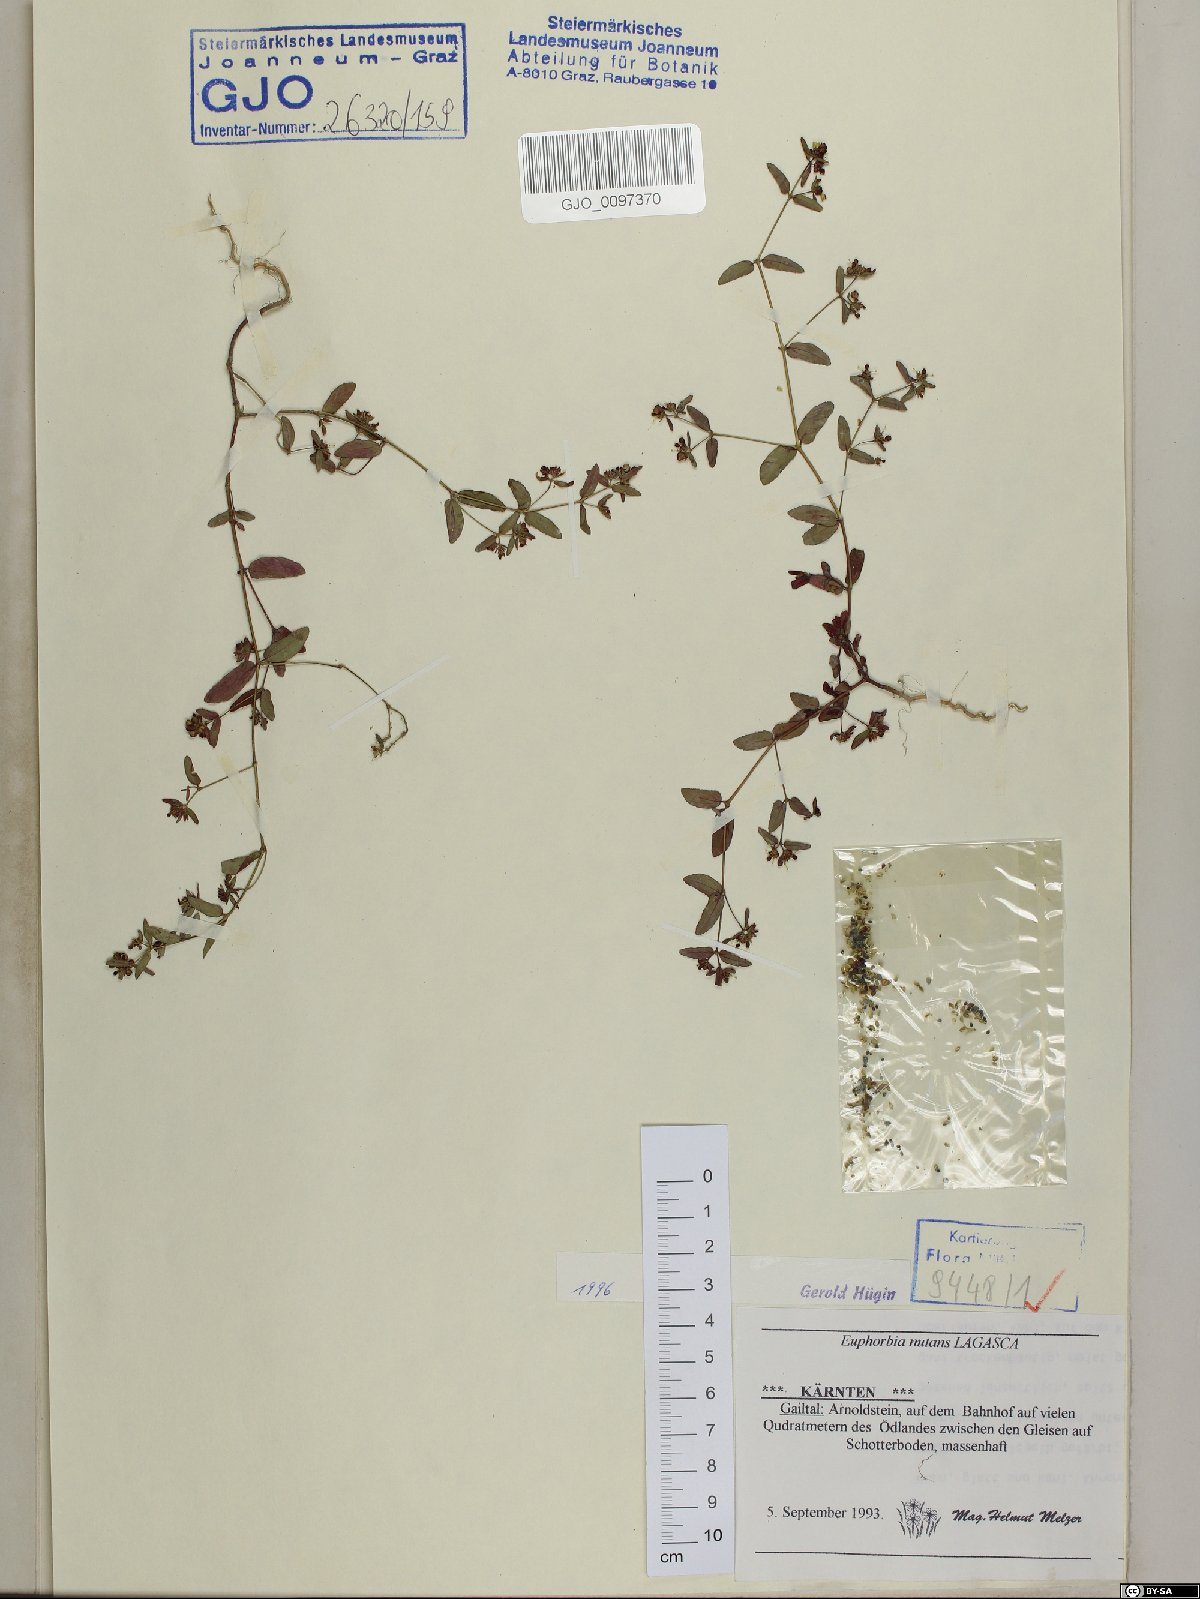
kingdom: Plantae
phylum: Tracheophyta
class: Magnoliopsida
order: Malpighiales
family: Euphorbiaceae
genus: Euphorbia
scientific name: Euphorbia nutans
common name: Eyebane
